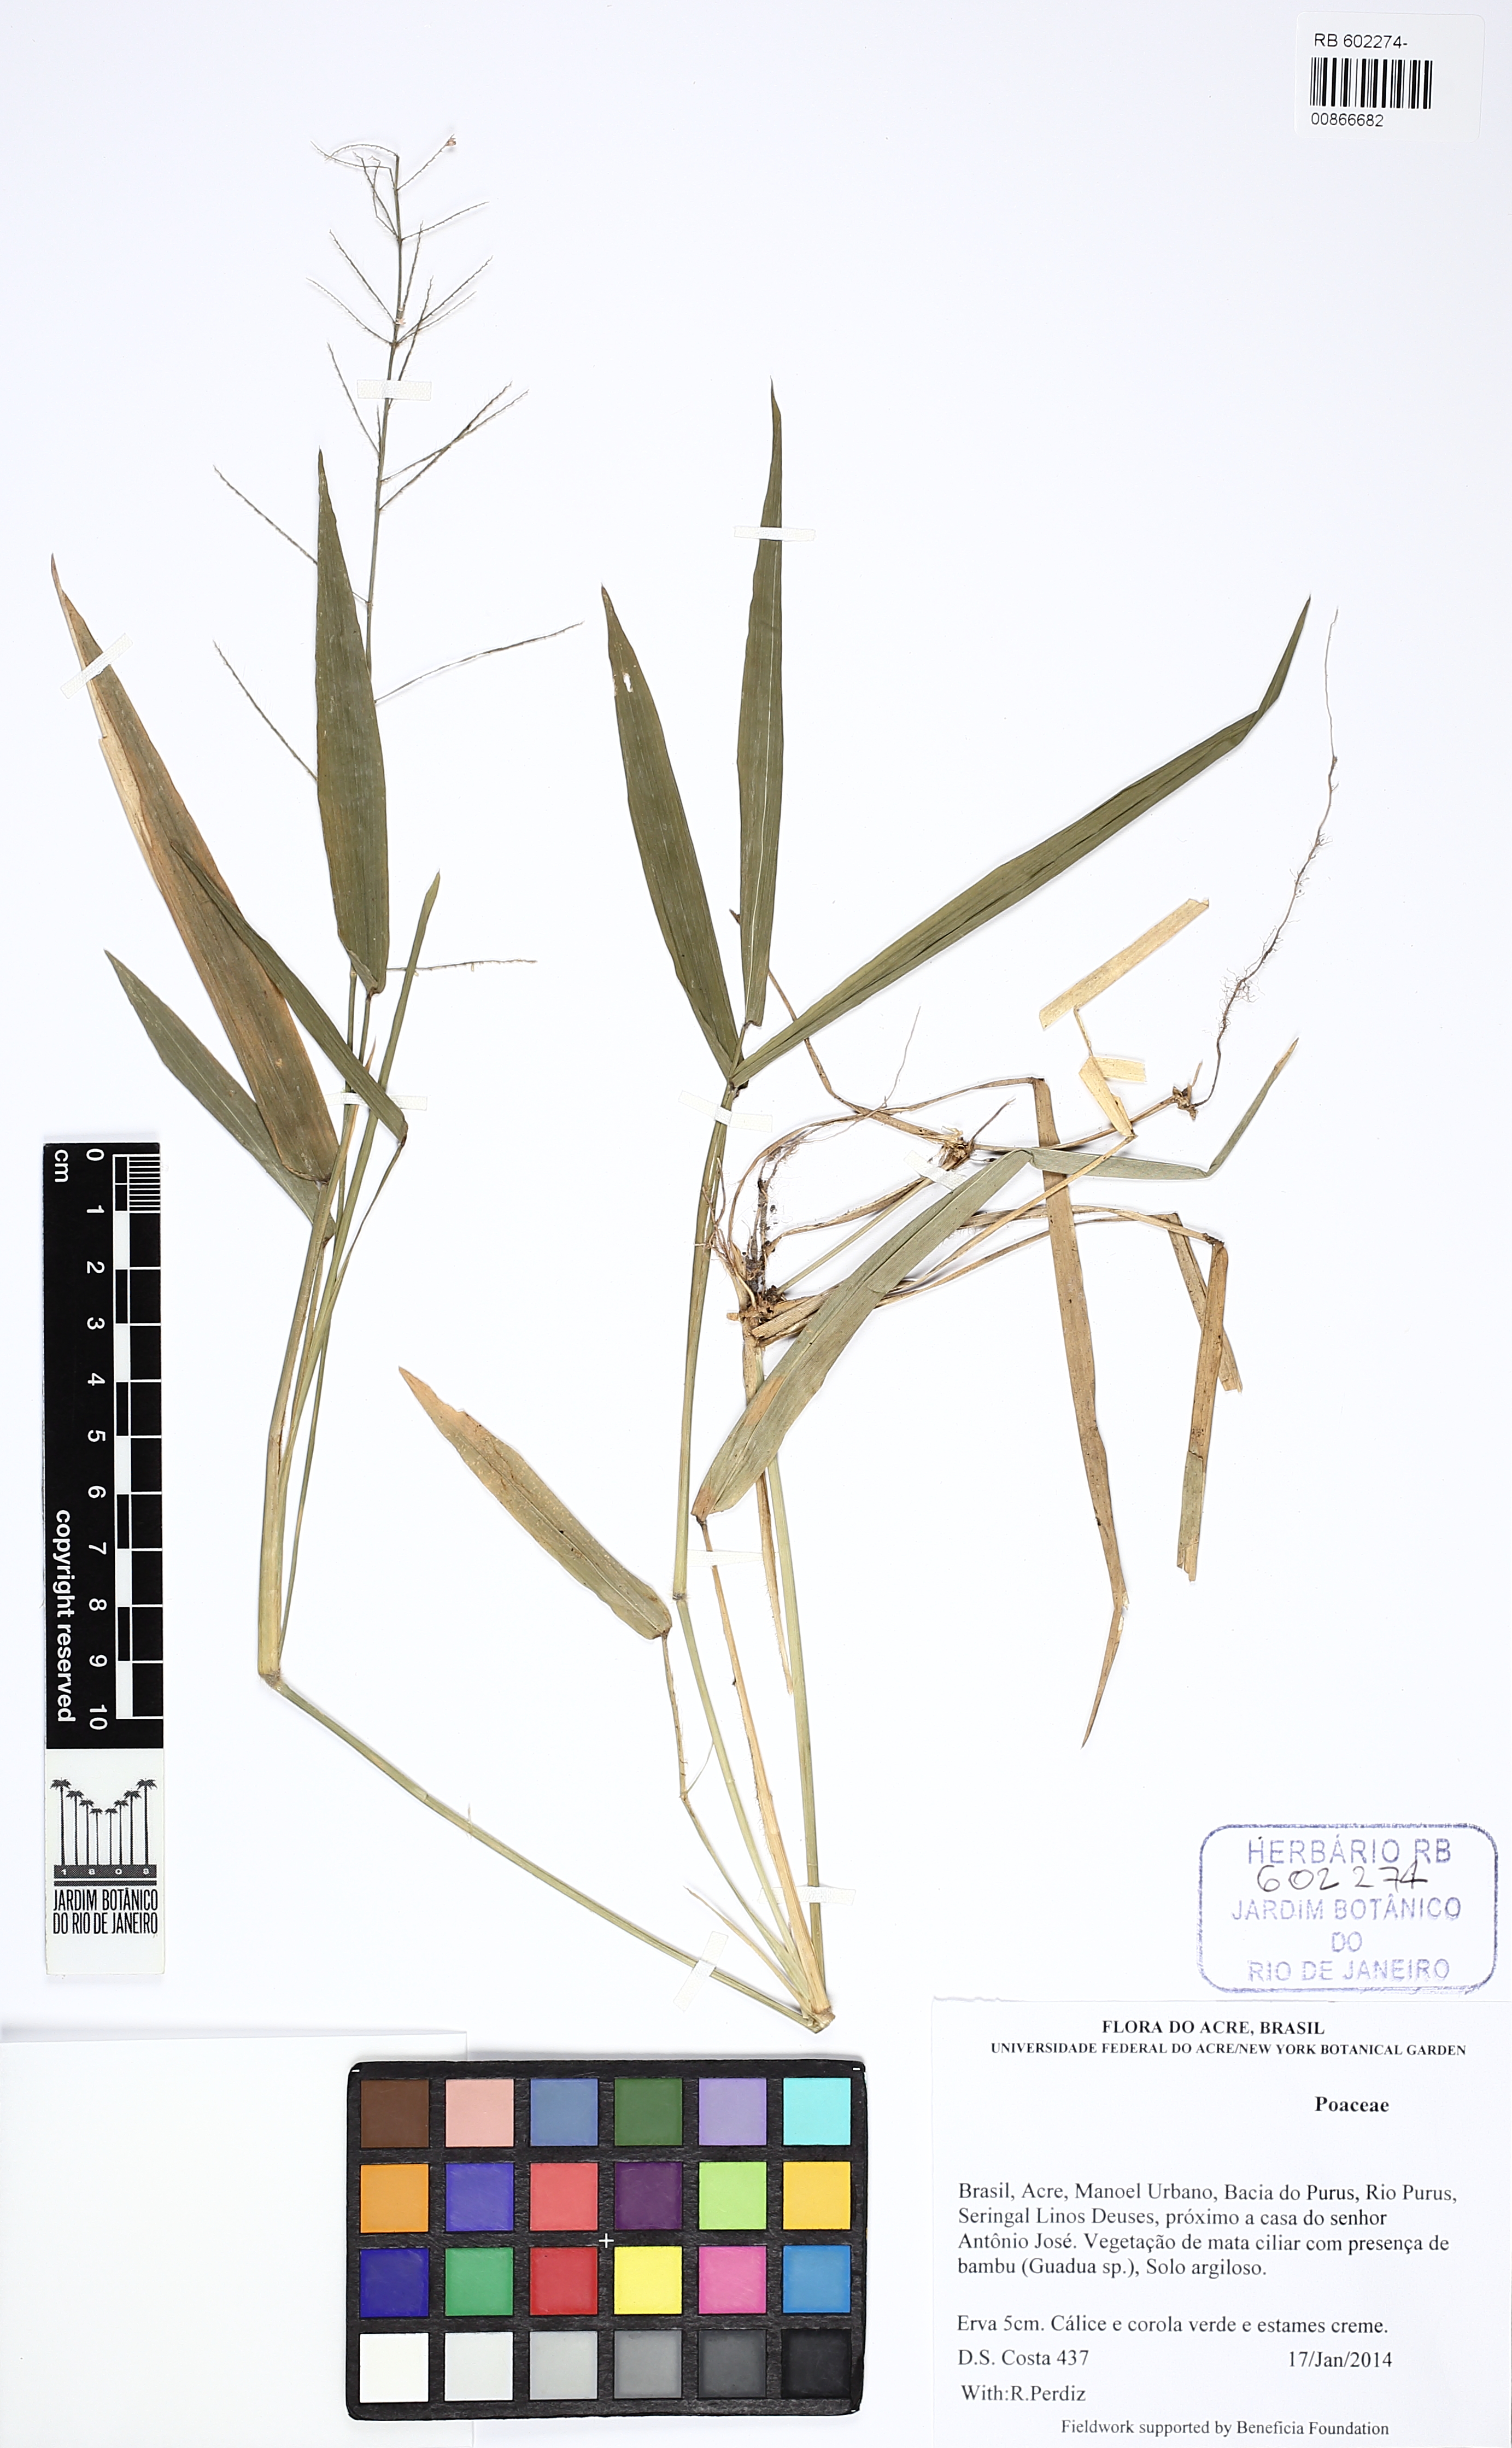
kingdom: Plantae
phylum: Tracheophyta
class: Liliopsida
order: Poales
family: Poaceae
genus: Rugoloa
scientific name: Rugoloa pilosa
